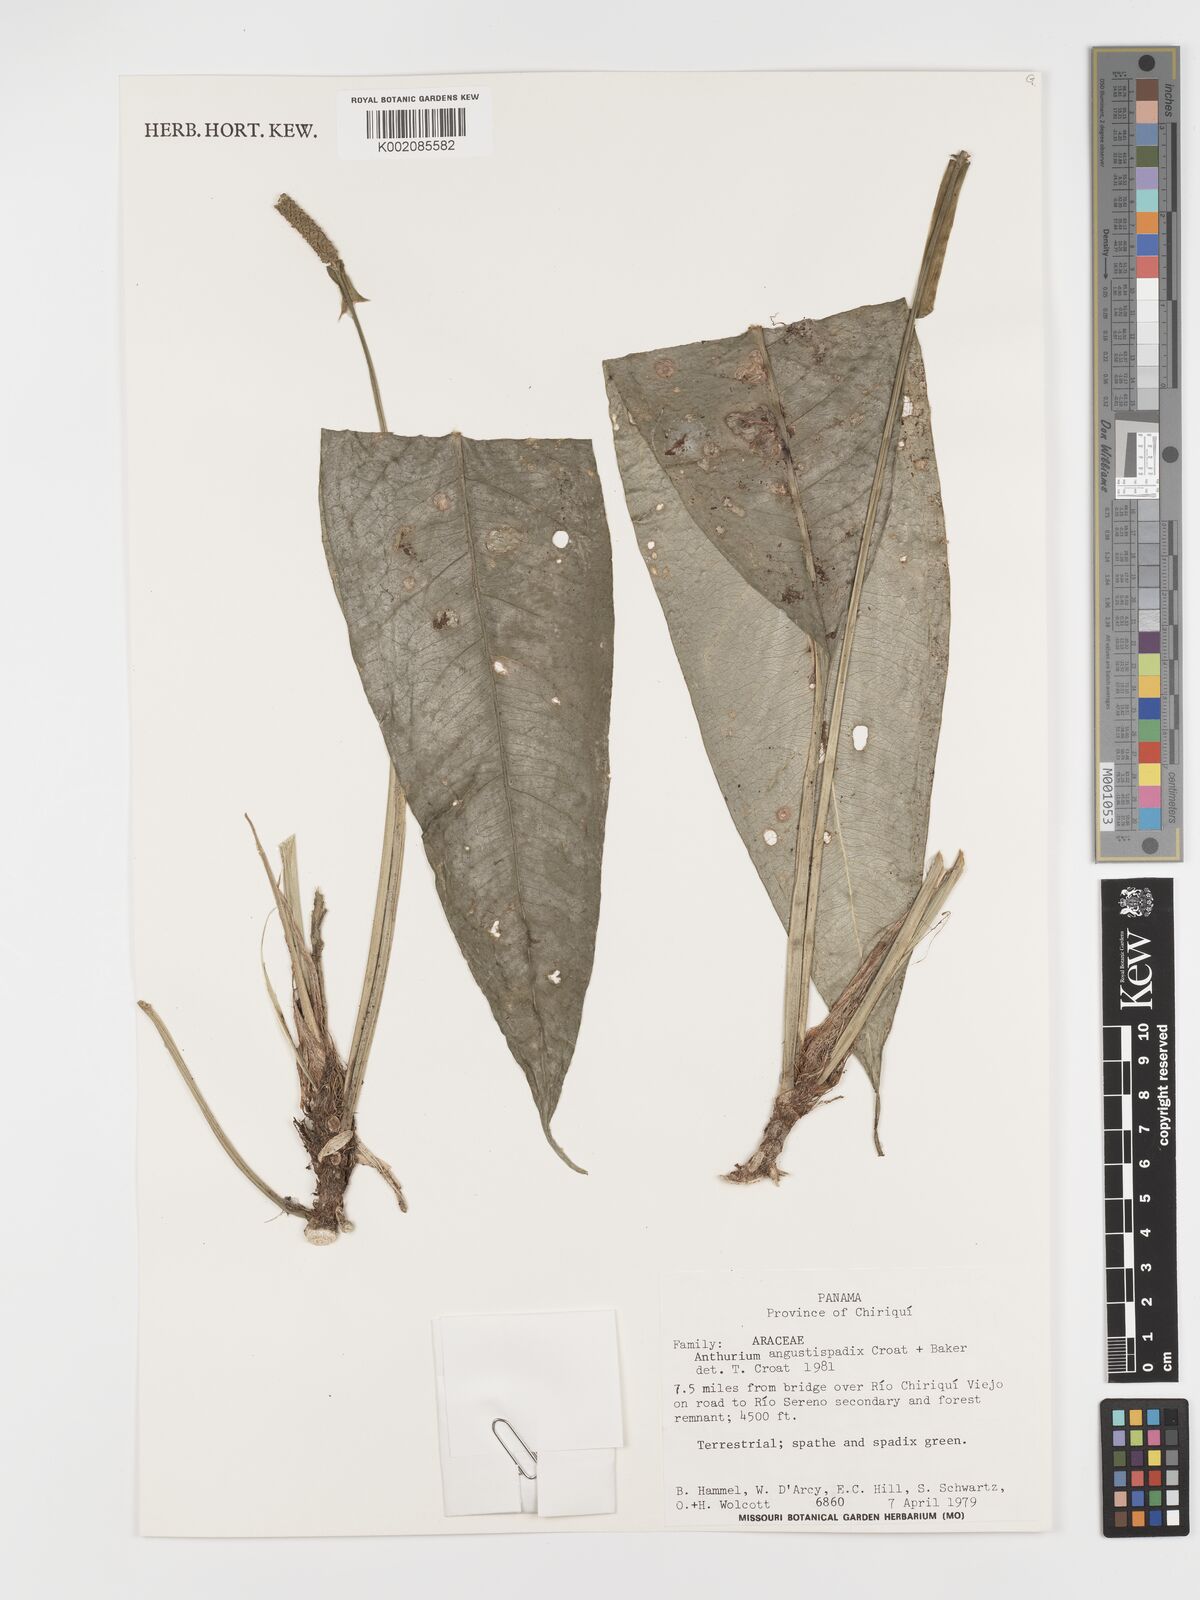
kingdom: Plantae
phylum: Tracheophyta
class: Liliopsida
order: Alismatales
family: Araceae
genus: Anthurium
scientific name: Anthurium angustispadix
